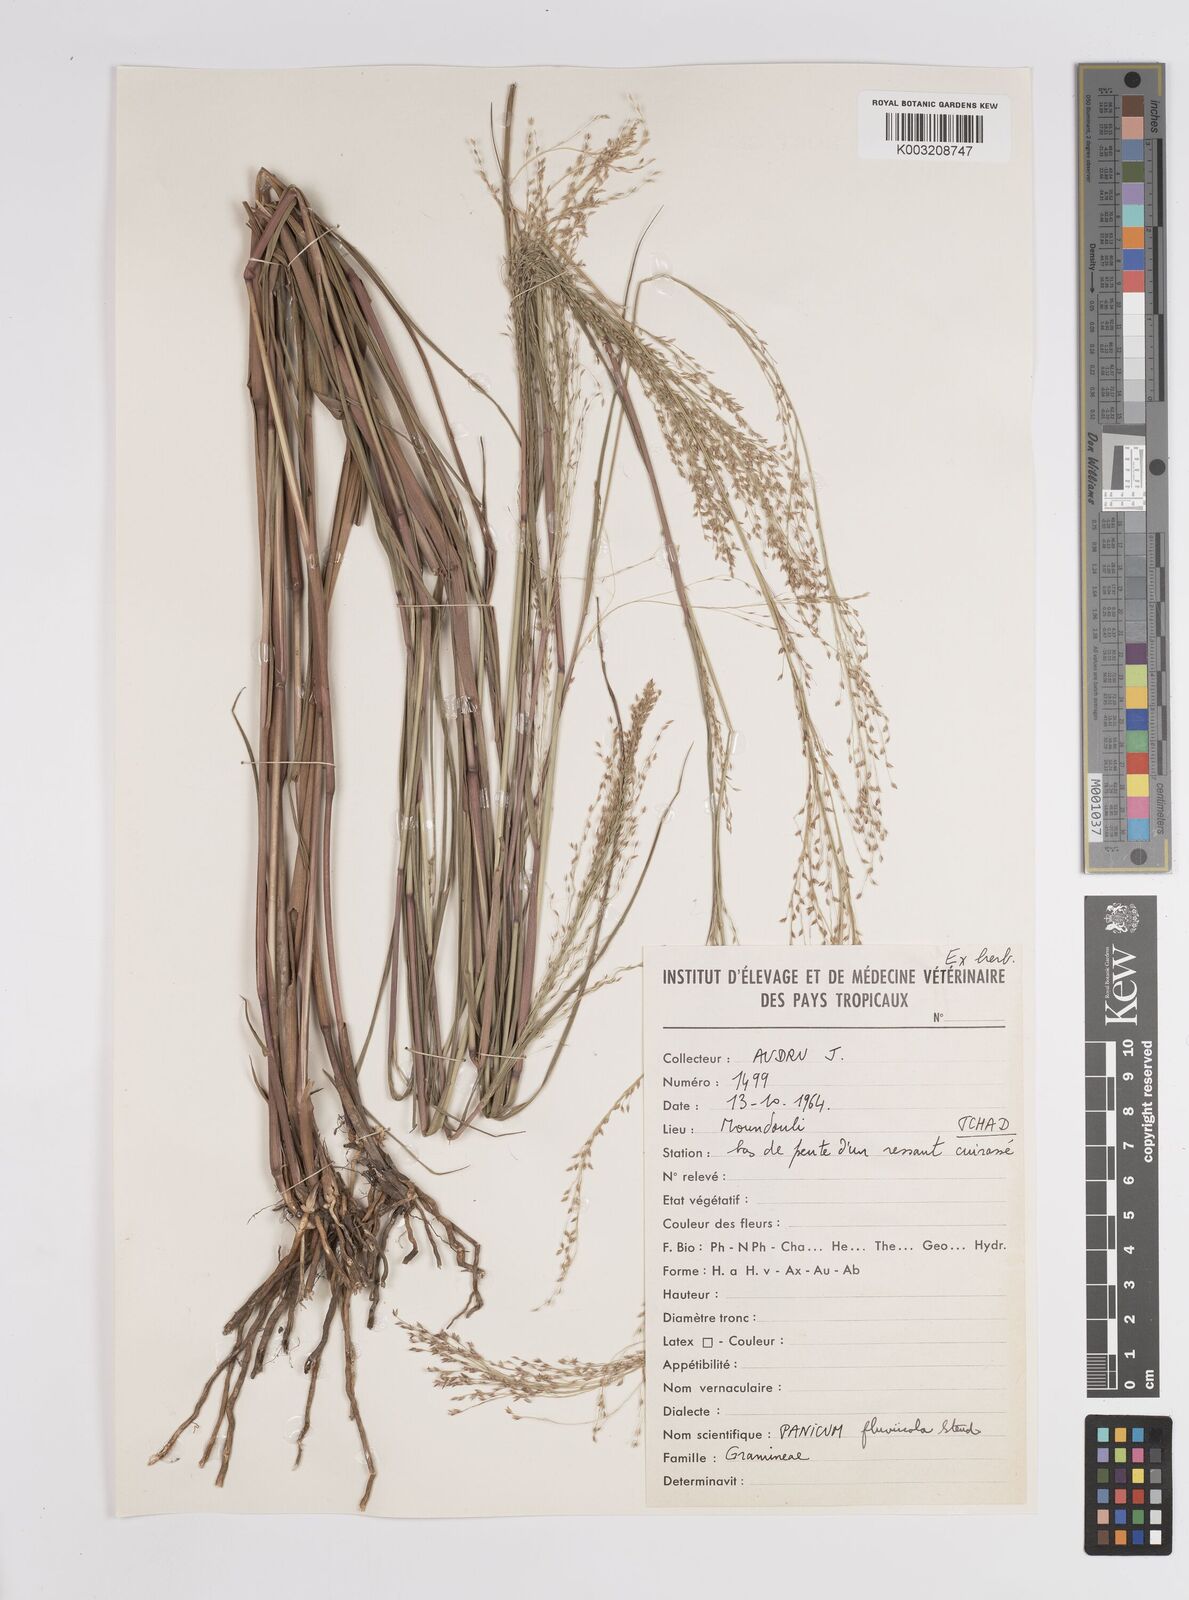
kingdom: Plantae
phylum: Tracheophyta
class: Liliopsida
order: Poales
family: Poaceae
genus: Panicum
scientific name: Panicum fluviicola
